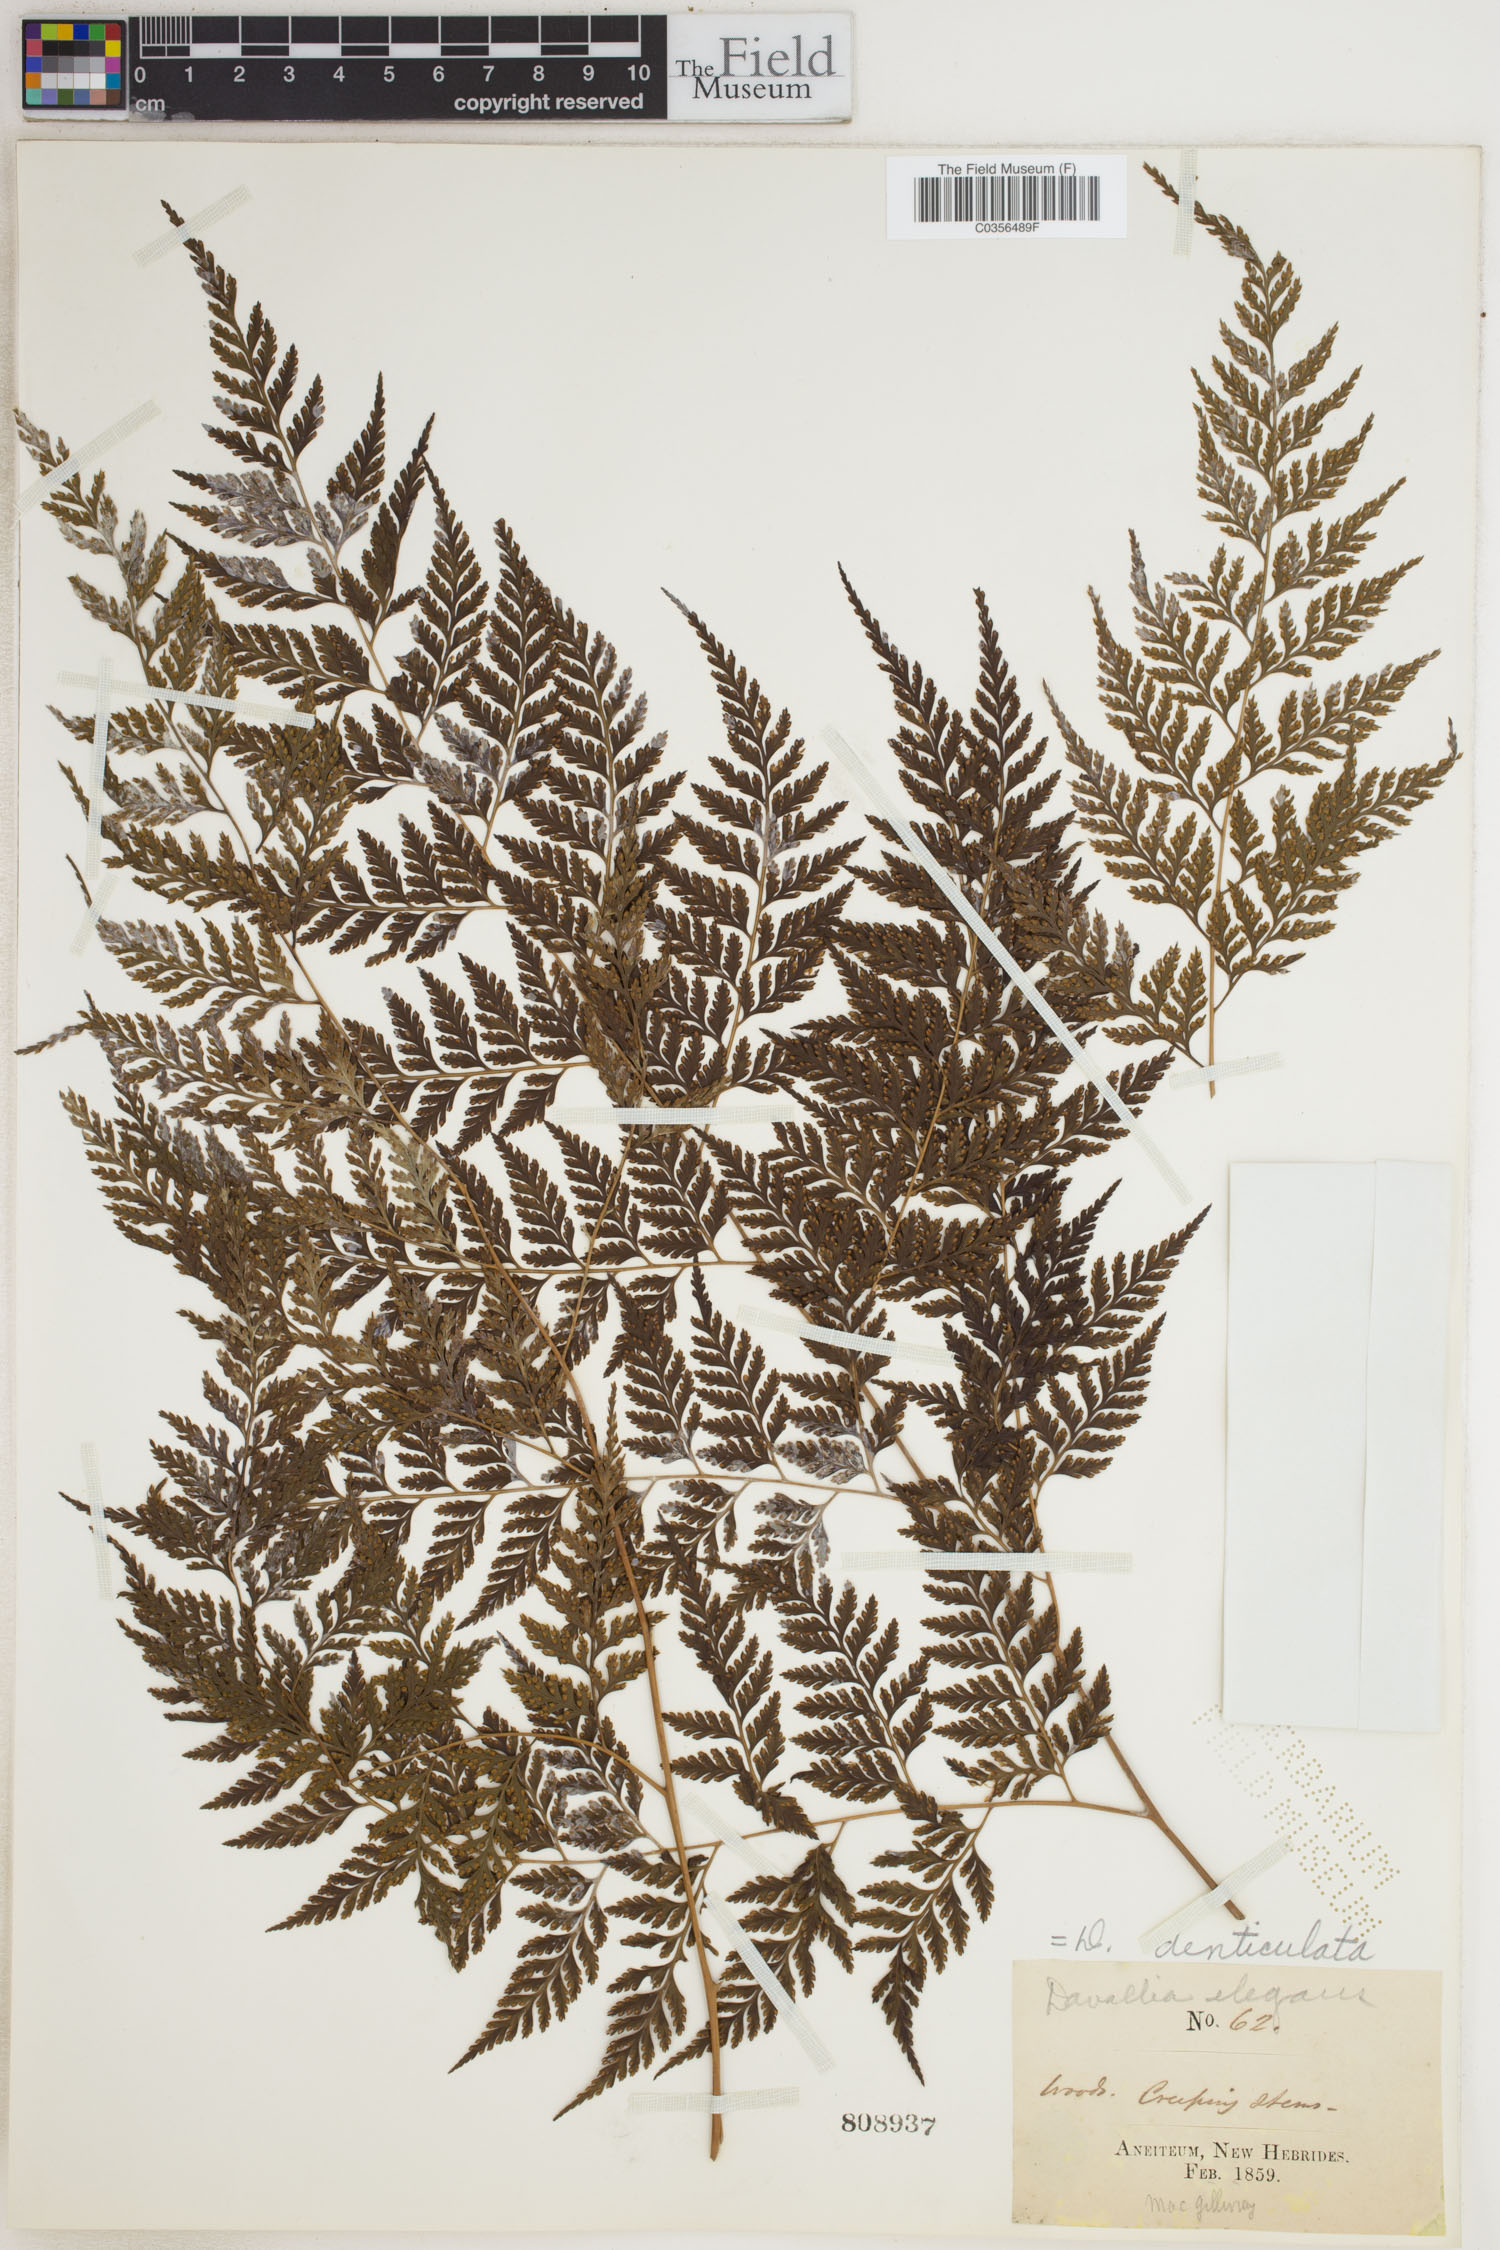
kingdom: Plantae
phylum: Tracheophyta
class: Polypodiopsida
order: Polypodiales
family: Davalliaceae
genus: Davallia
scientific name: Davallia denticulata
